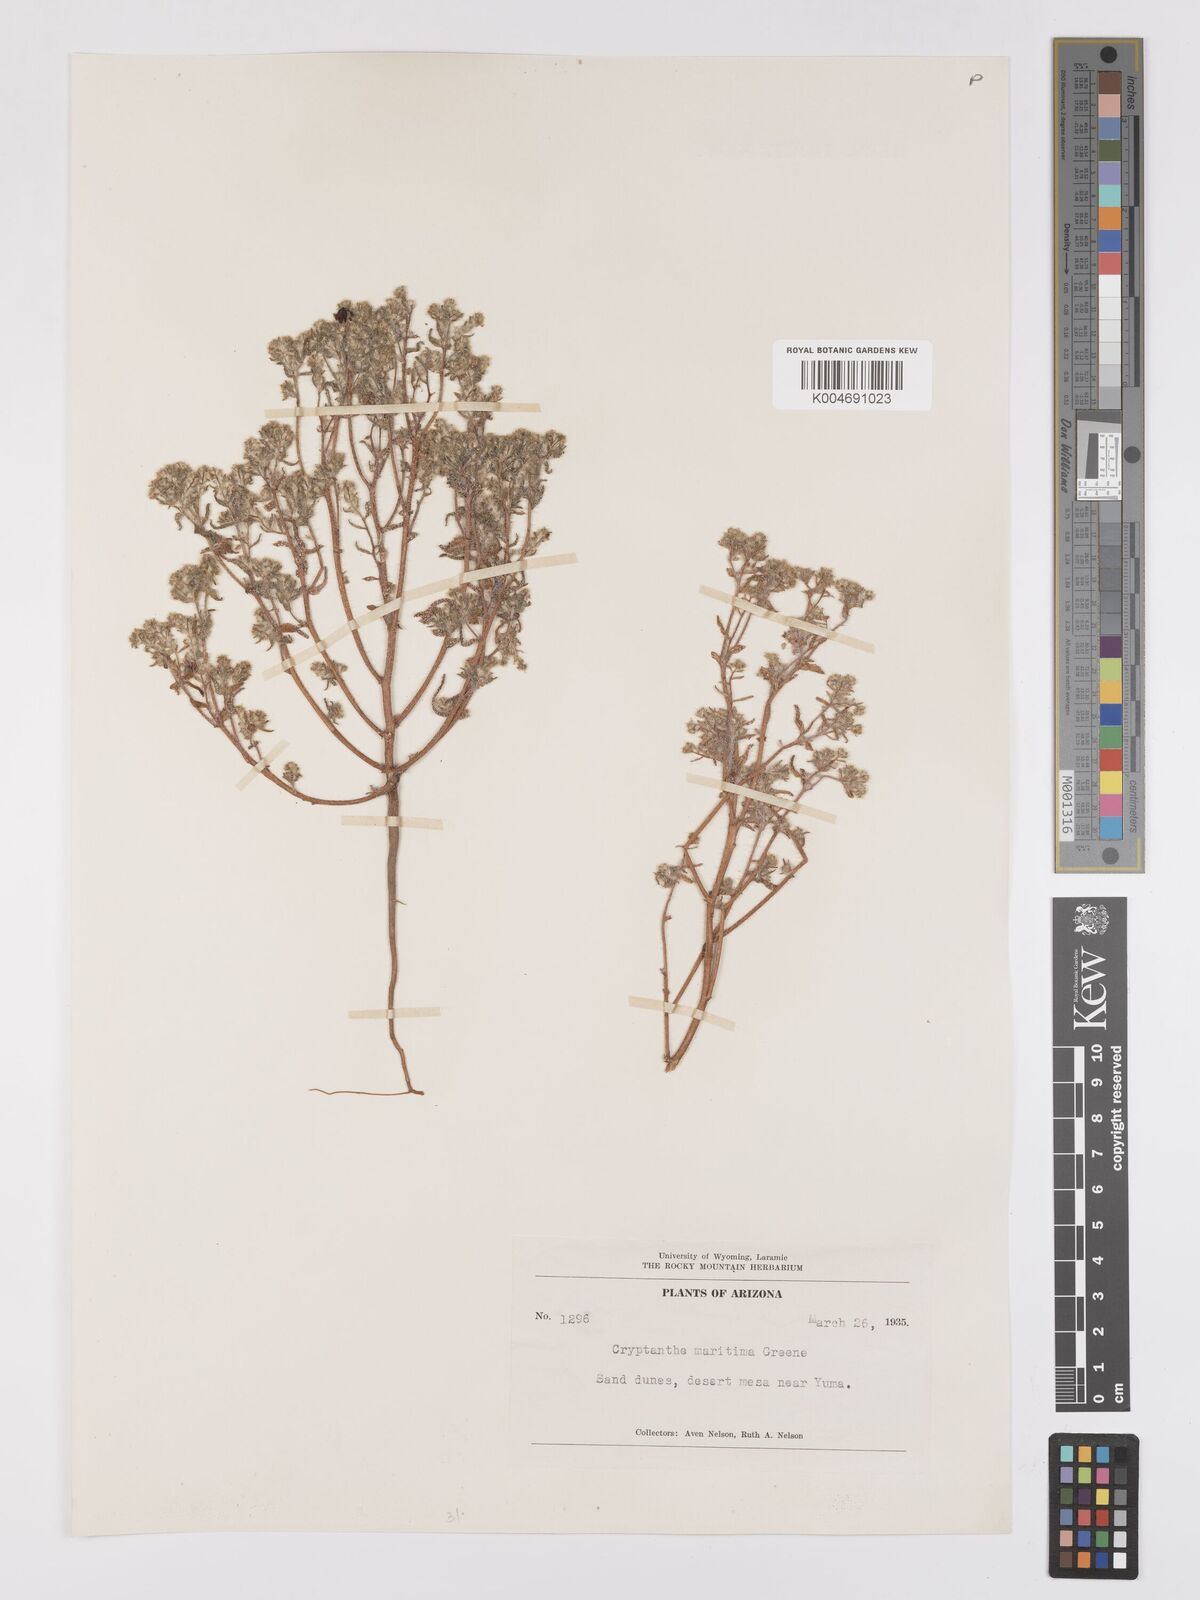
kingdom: Plantae
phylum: Tracheophyta
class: Magnoliopsida
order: Boraginales
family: Boraginaceae
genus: Cryptantha
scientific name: Cryptantha maritima
